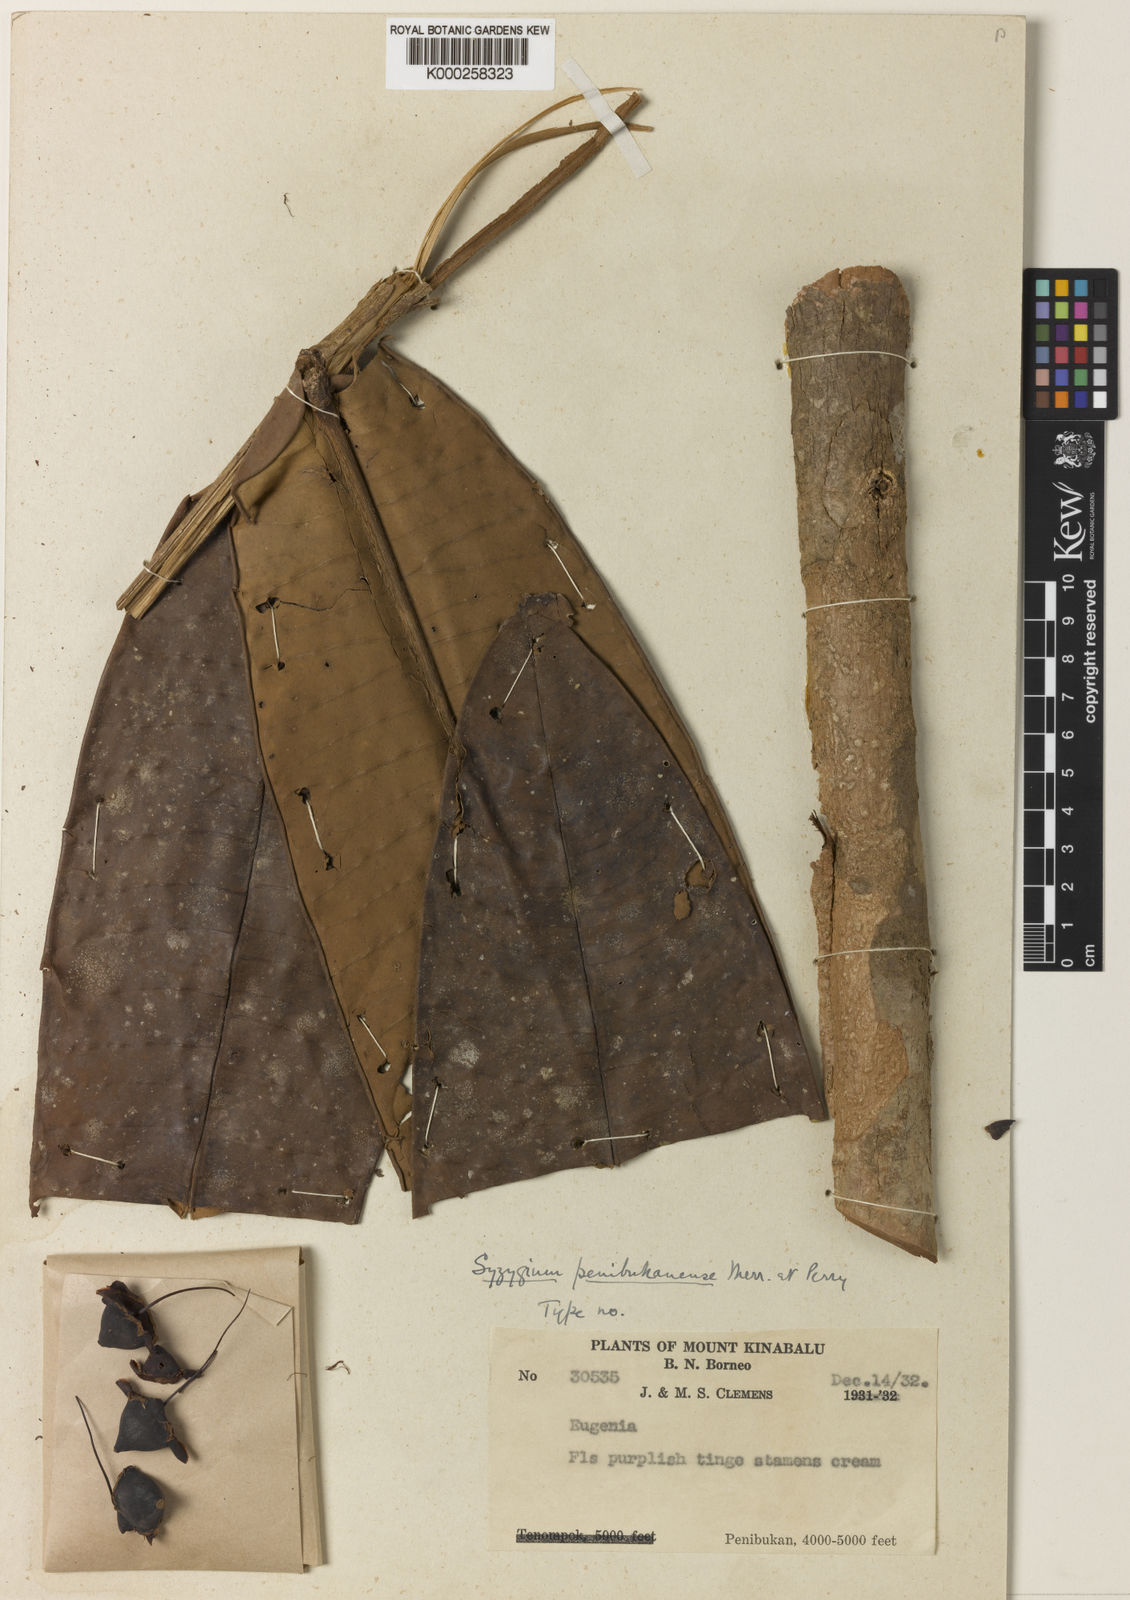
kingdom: Plantae
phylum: Tracheophyta
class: Magnoliopsida
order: Myrtales
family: Myrtaceae
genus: Syzygium
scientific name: Syzygium penibukanense
